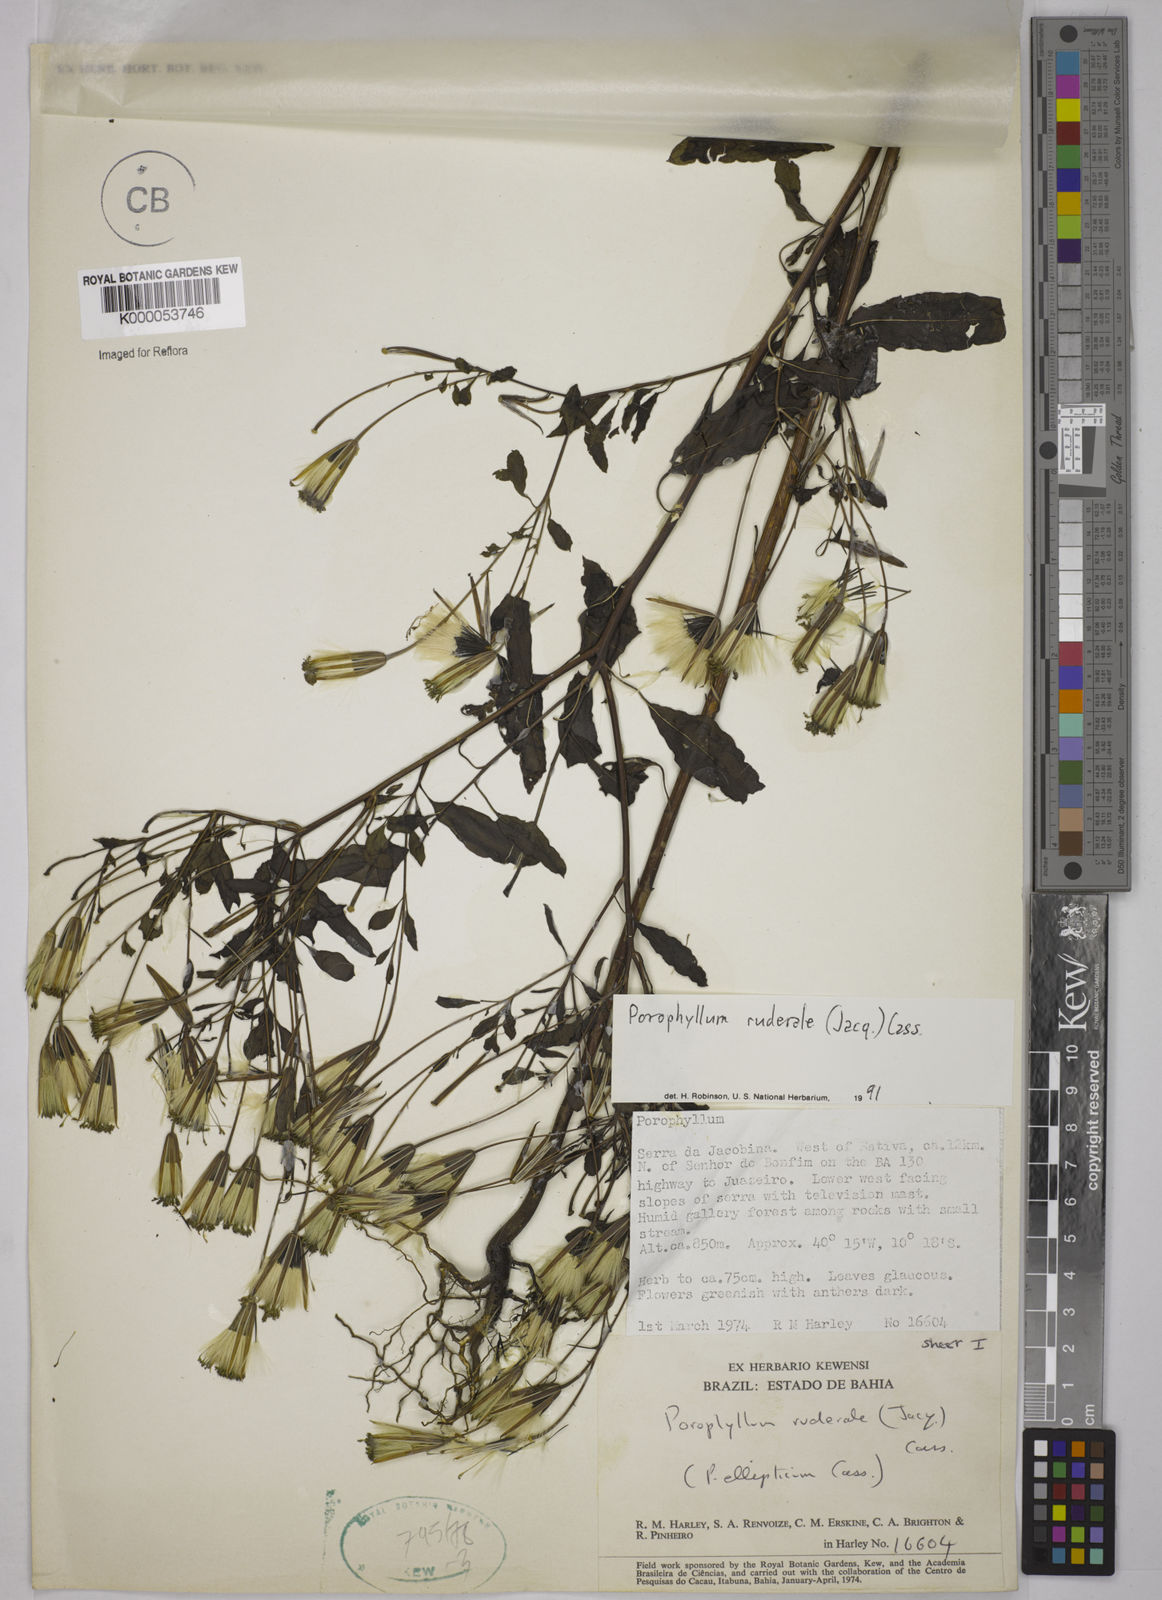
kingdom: Plantae
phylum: Tracheophyta
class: Magnoliopsida
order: Asterales
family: Asteraceae
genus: Porophyllum
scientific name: Porophyllum ruderale
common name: Yerba porosa
